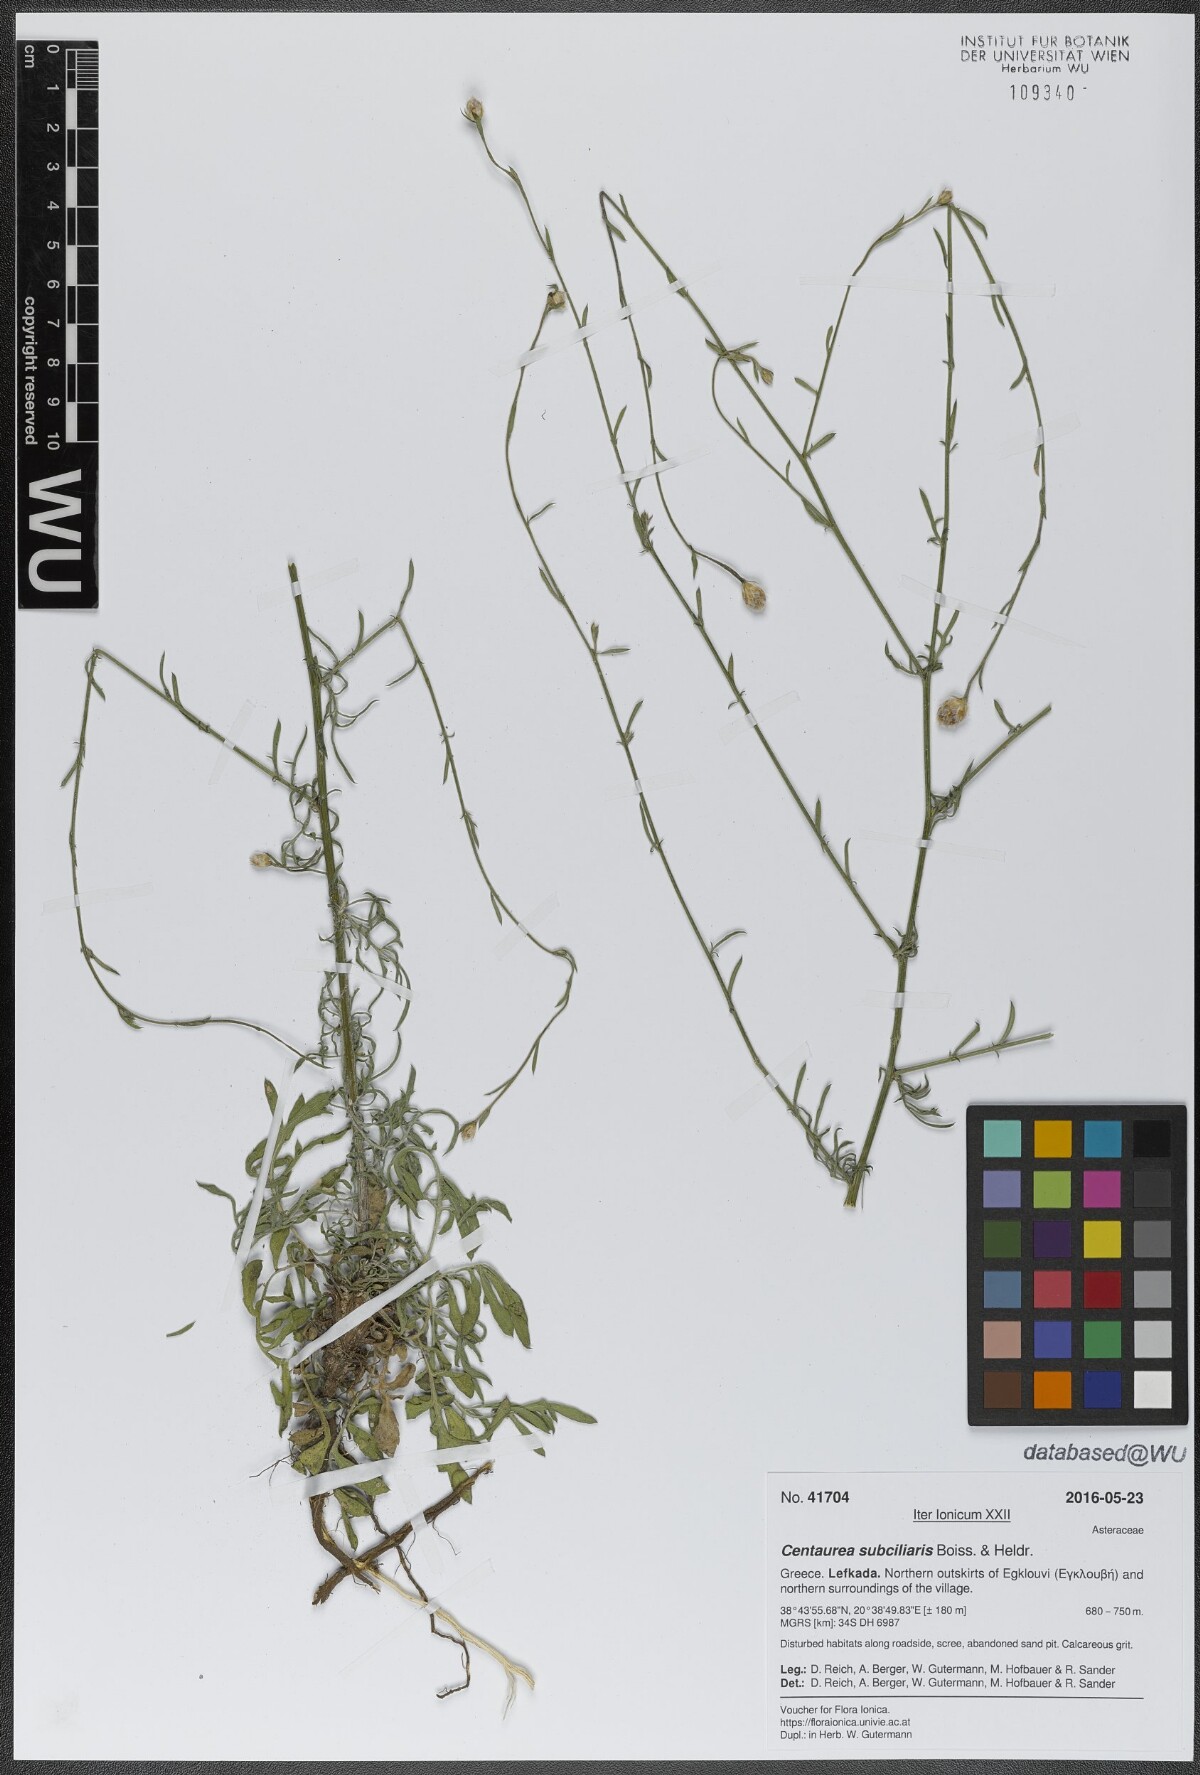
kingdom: Plantae
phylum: Tracheophyta
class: Magnoliopsida
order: Asterales
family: Asteraceae
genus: Centaurea
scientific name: Centaurea subciliaris
